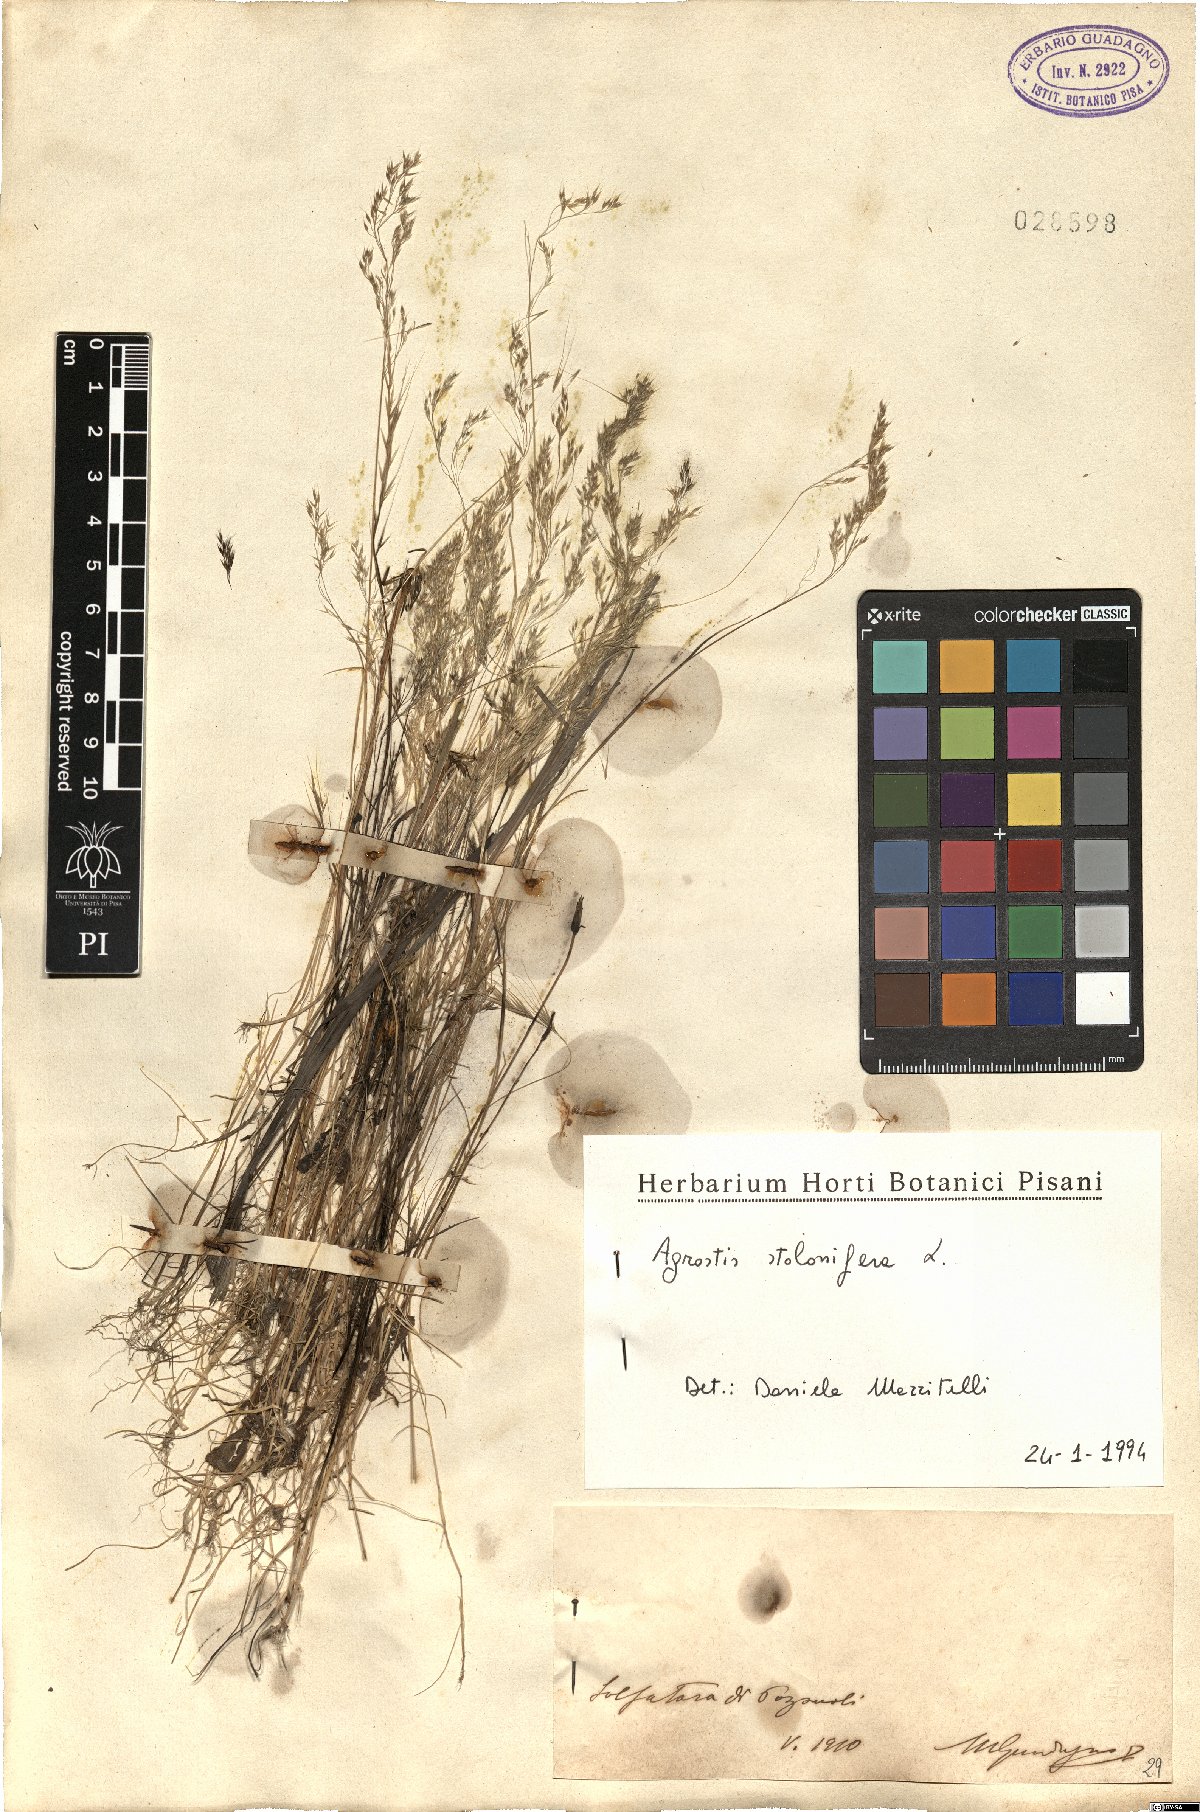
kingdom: Plantae
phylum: Tracheophyta
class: Liliopsida
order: Poales
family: Poaceae
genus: Agrostis
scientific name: Agrostis stolonifera
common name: Creeping bentgrass
